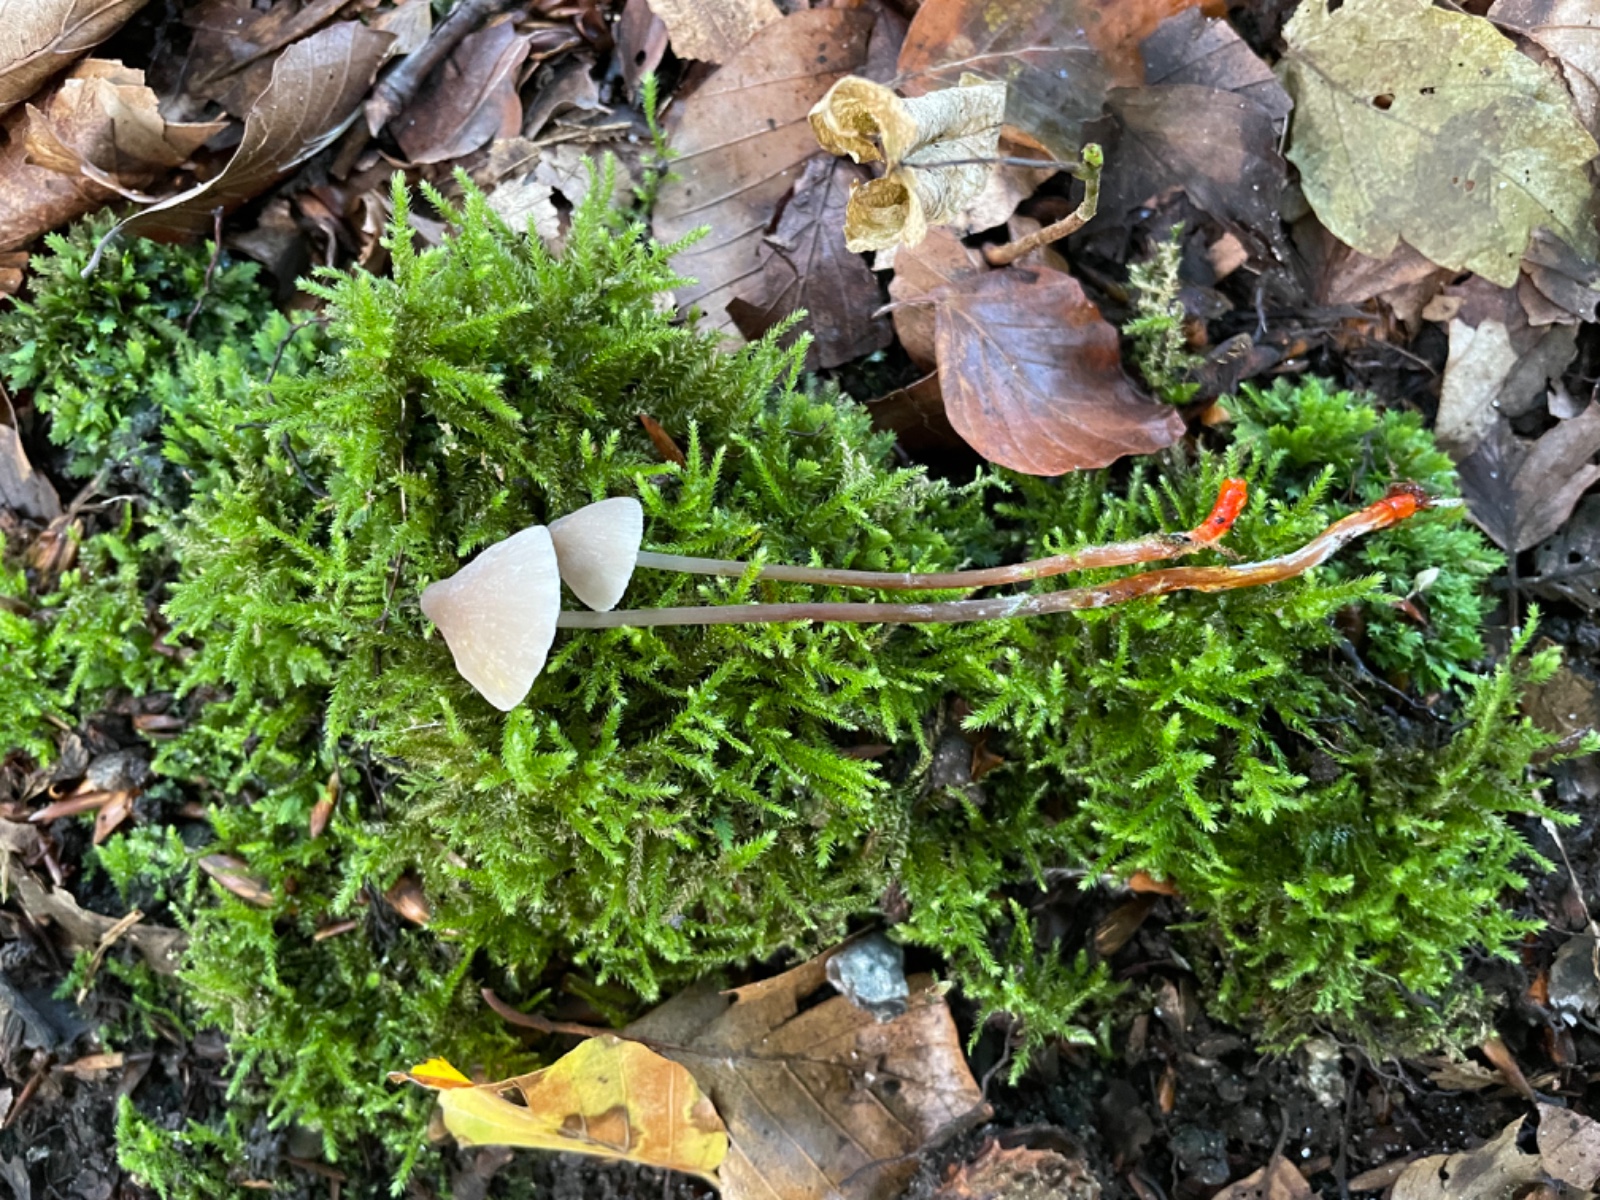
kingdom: Fungi
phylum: Basidiomycota
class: Agaricomycetes
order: Agaricales
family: Mycenaceae
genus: Mycena
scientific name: Mycena crocata
